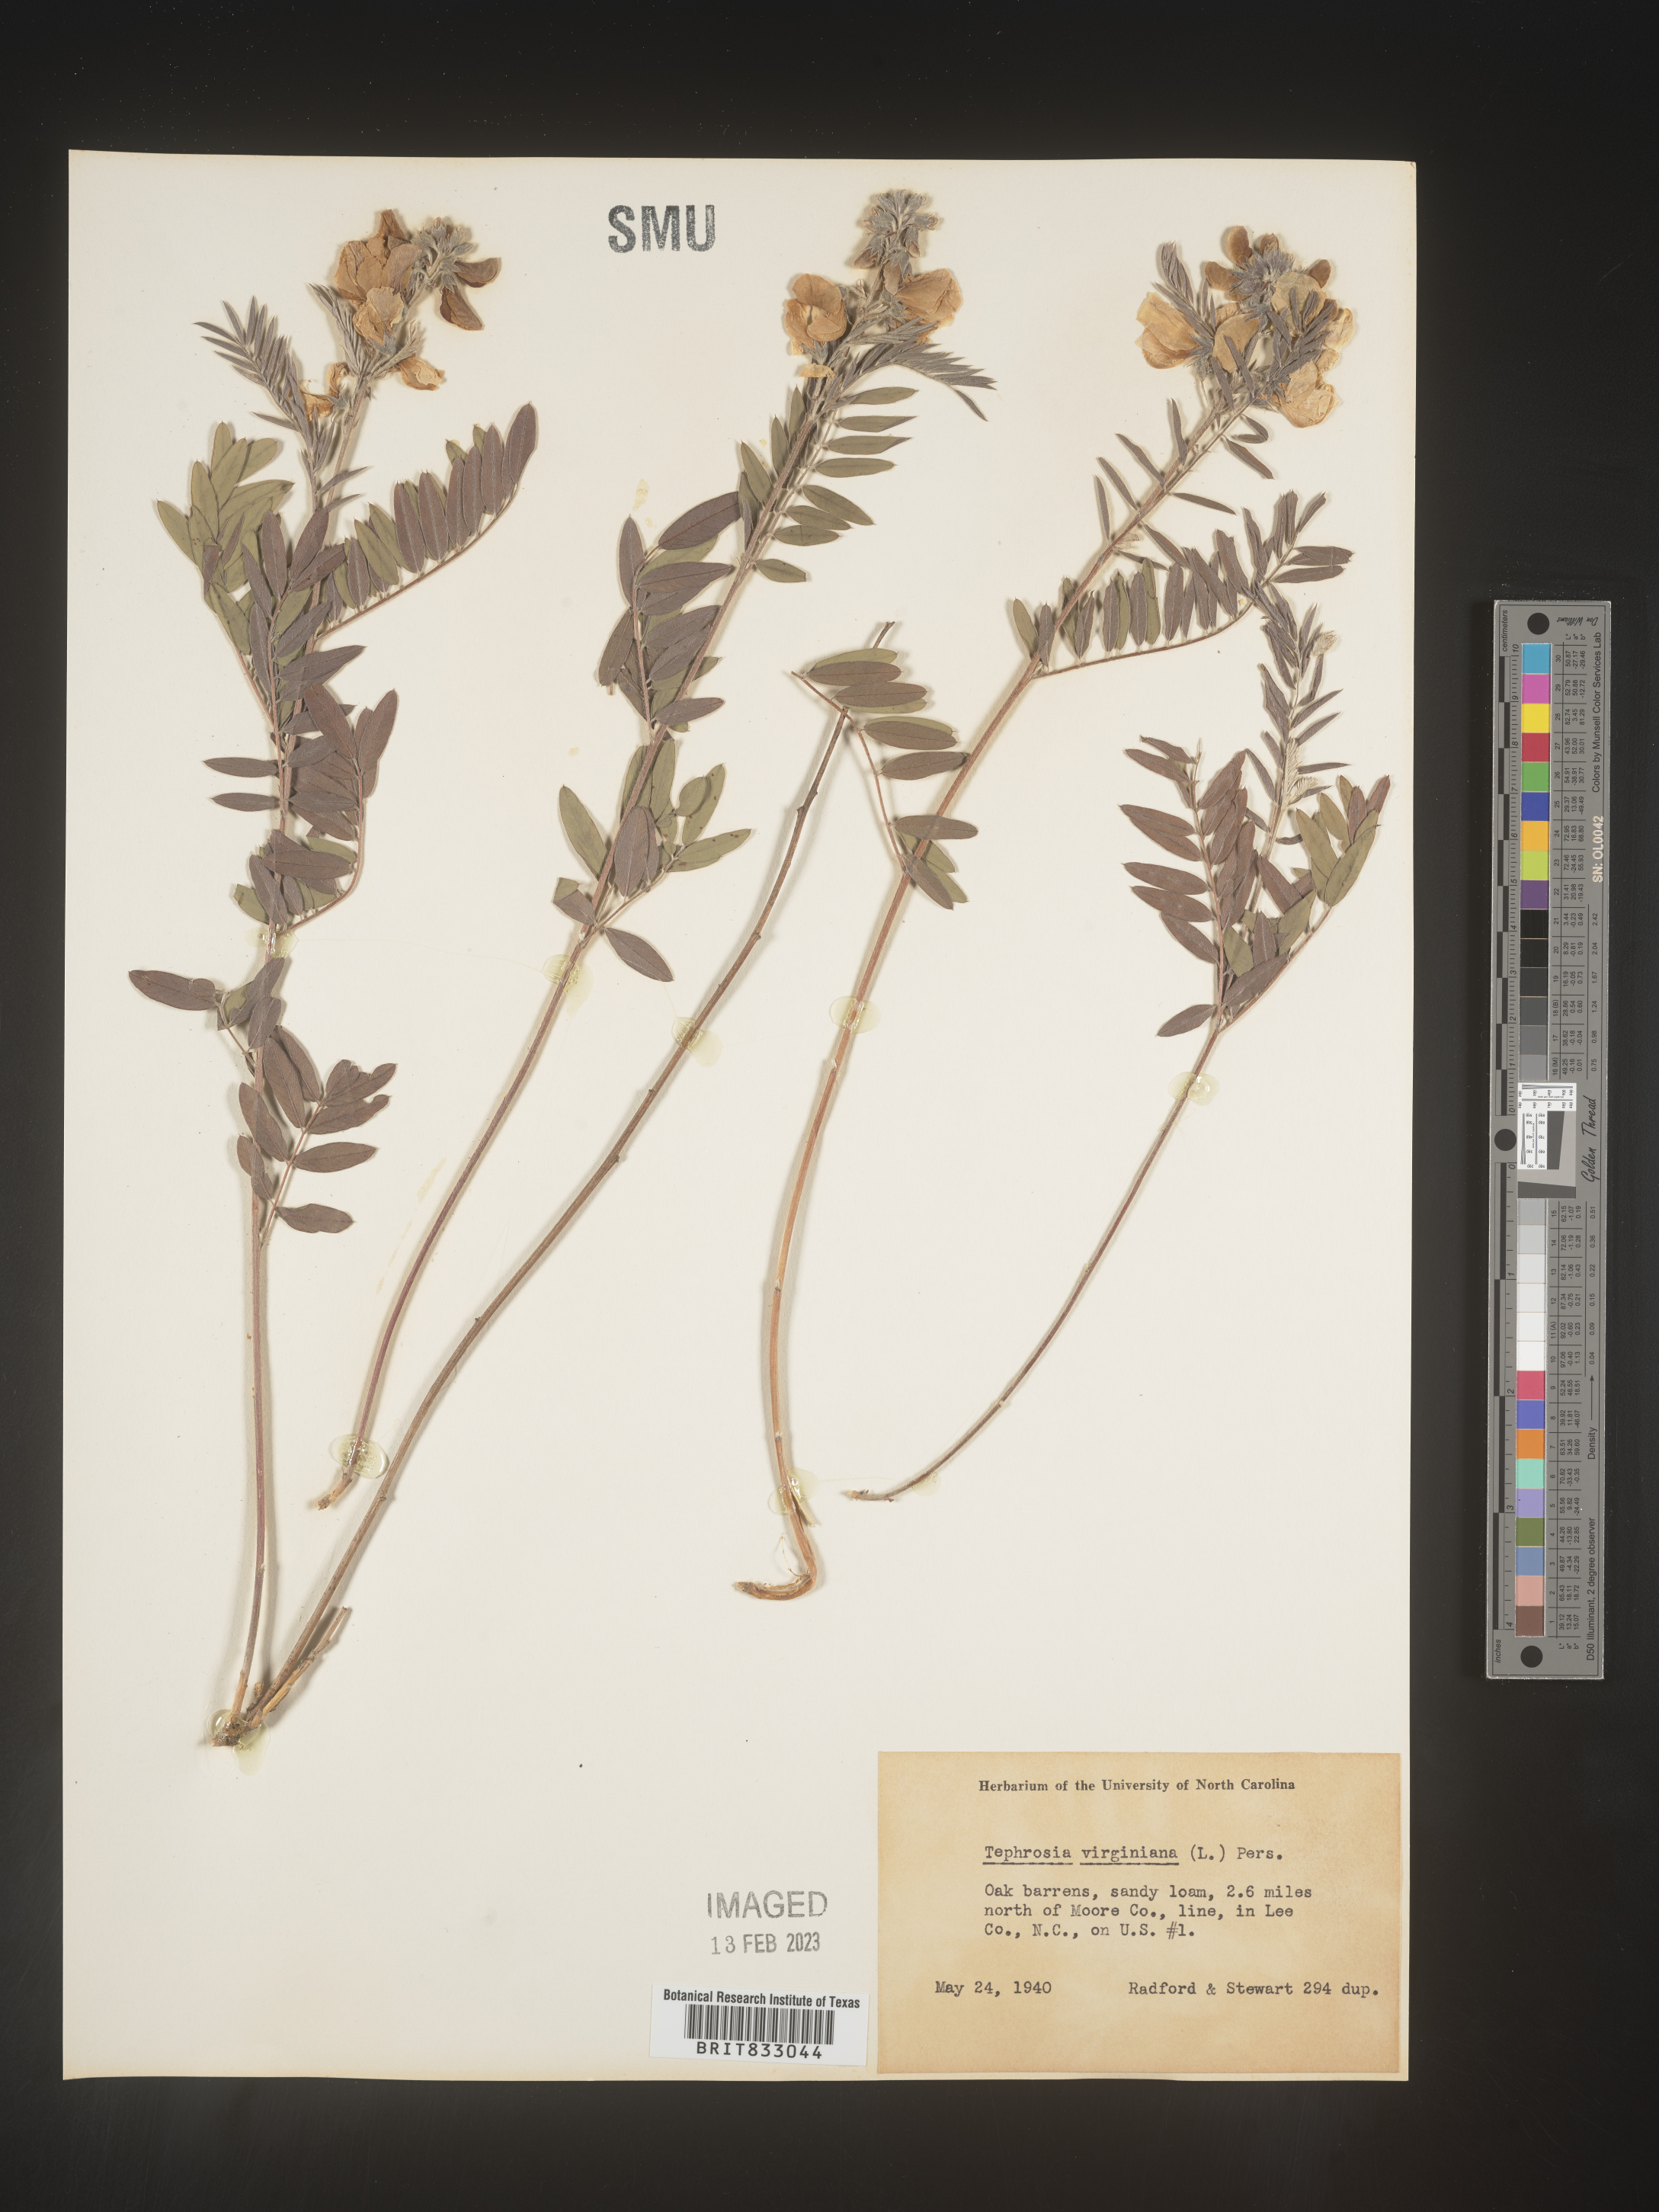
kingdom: Plantae
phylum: Tracheophyta
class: Magnoliopsida
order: Fabales
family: Fabaceae
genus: Tephrosia
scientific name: Tephrosia virginiana
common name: Rabbit-pea
